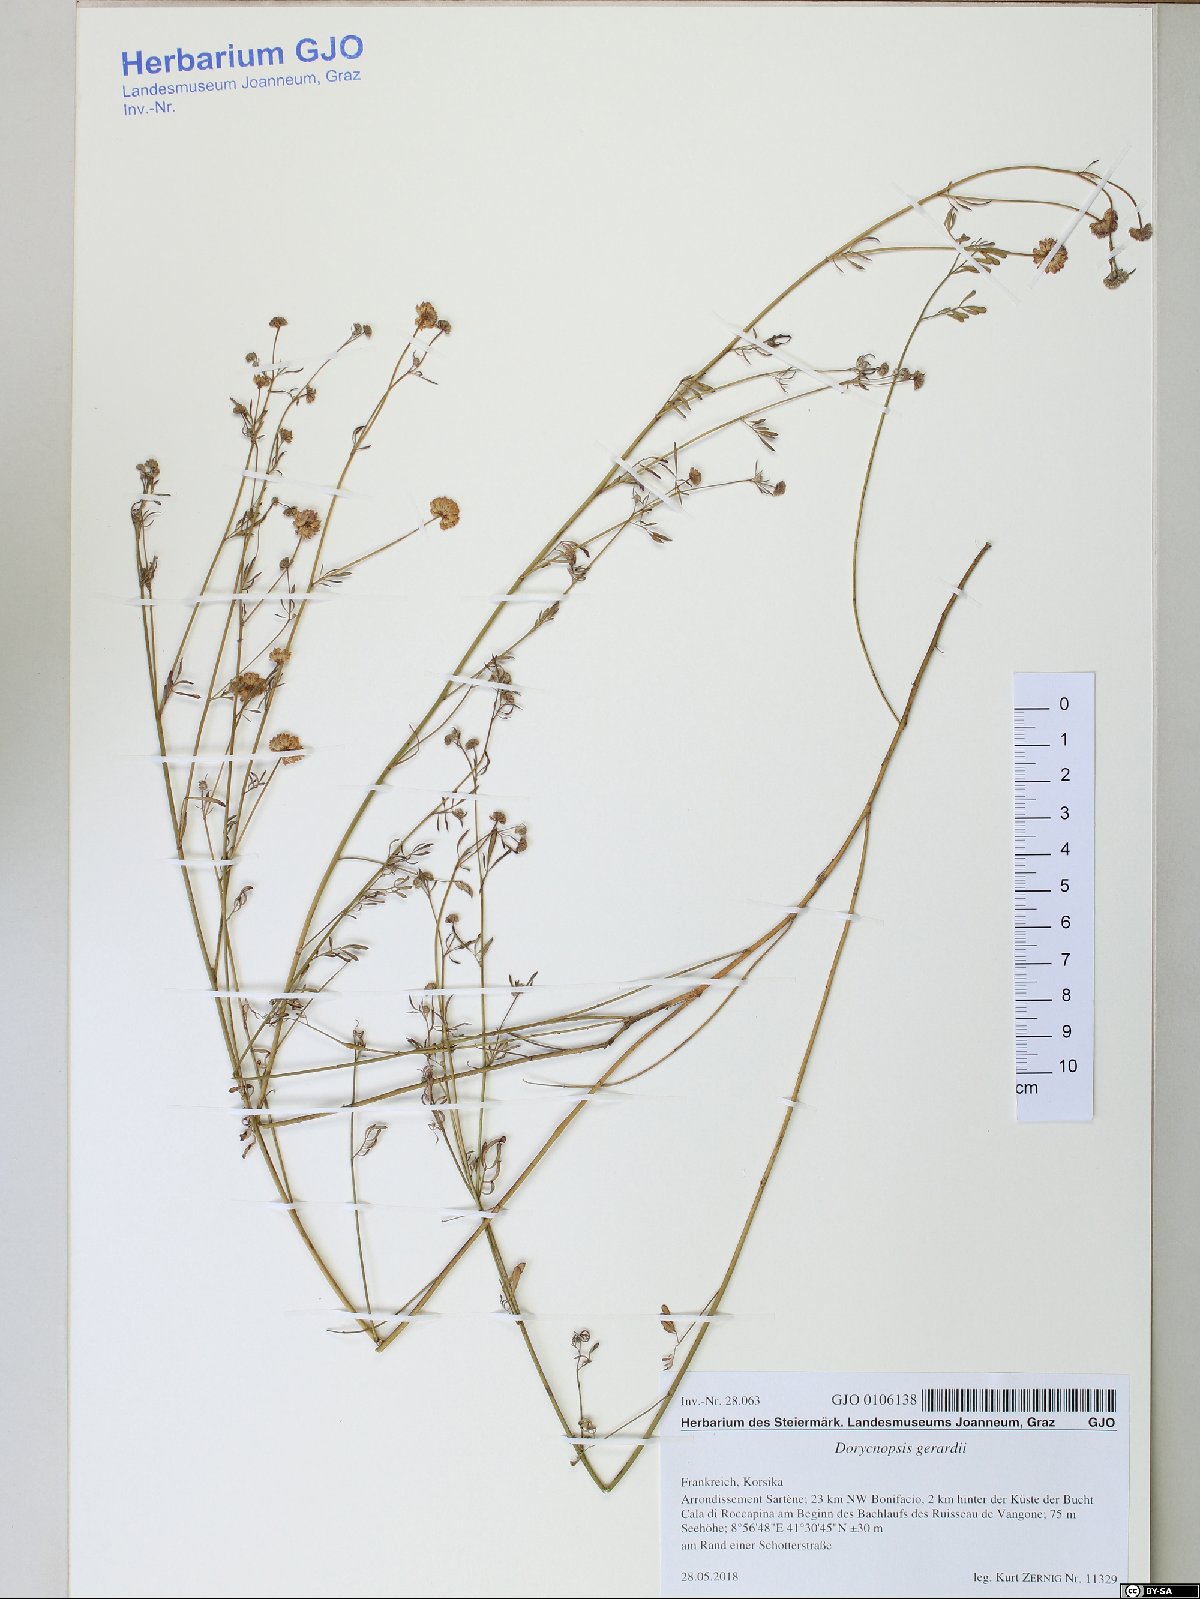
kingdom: Plantae
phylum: Tracheophyta
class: Magnoliopsida
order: Fabales
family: Fabaceae
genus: Dorycnopsis
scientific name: Dorycnopsis gerardi
